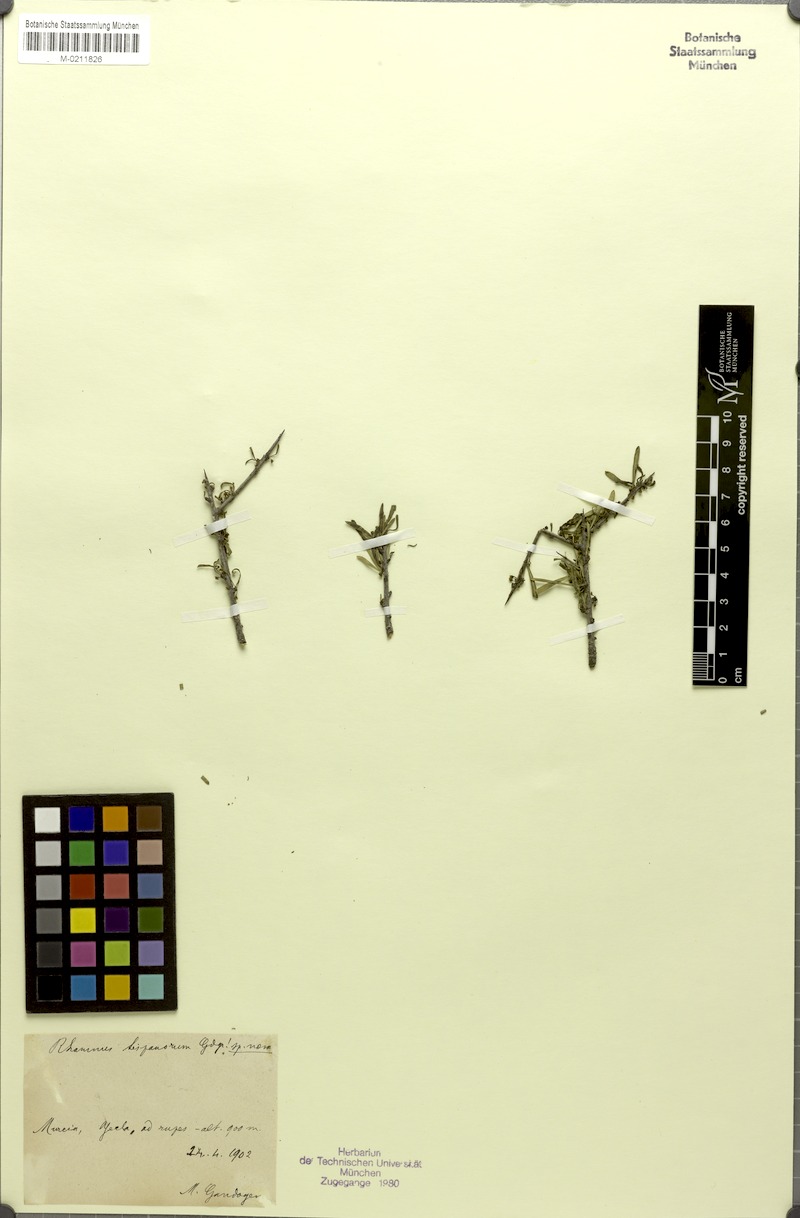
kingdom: Plantae
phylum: Tracheophyta
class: Magnoliopsida
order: Rosales
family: Rhamnaceae
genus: Rhamnus
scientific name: Rhamnus lycioides
